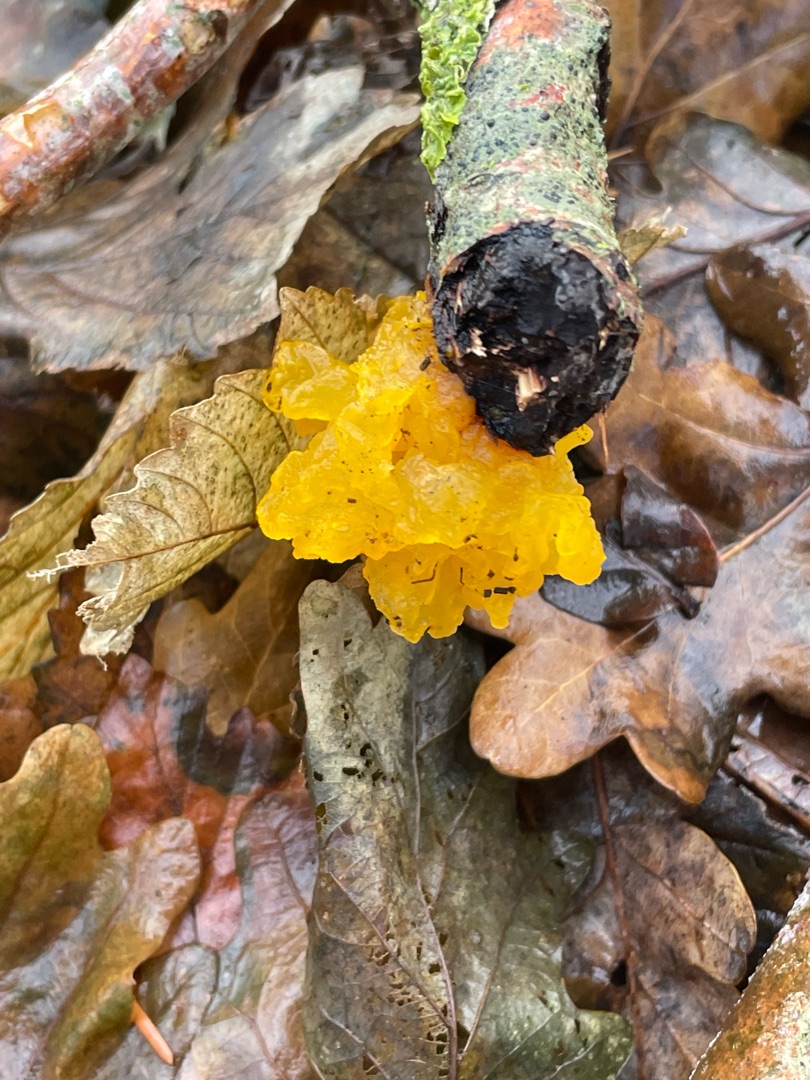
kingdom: Fungi
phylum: Basidiomycota
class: Tremellomycetes
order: Tremellales
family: Tremellaceae
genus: Tremella
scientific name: Tremella mesenterica
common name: Gul bævresvamp
